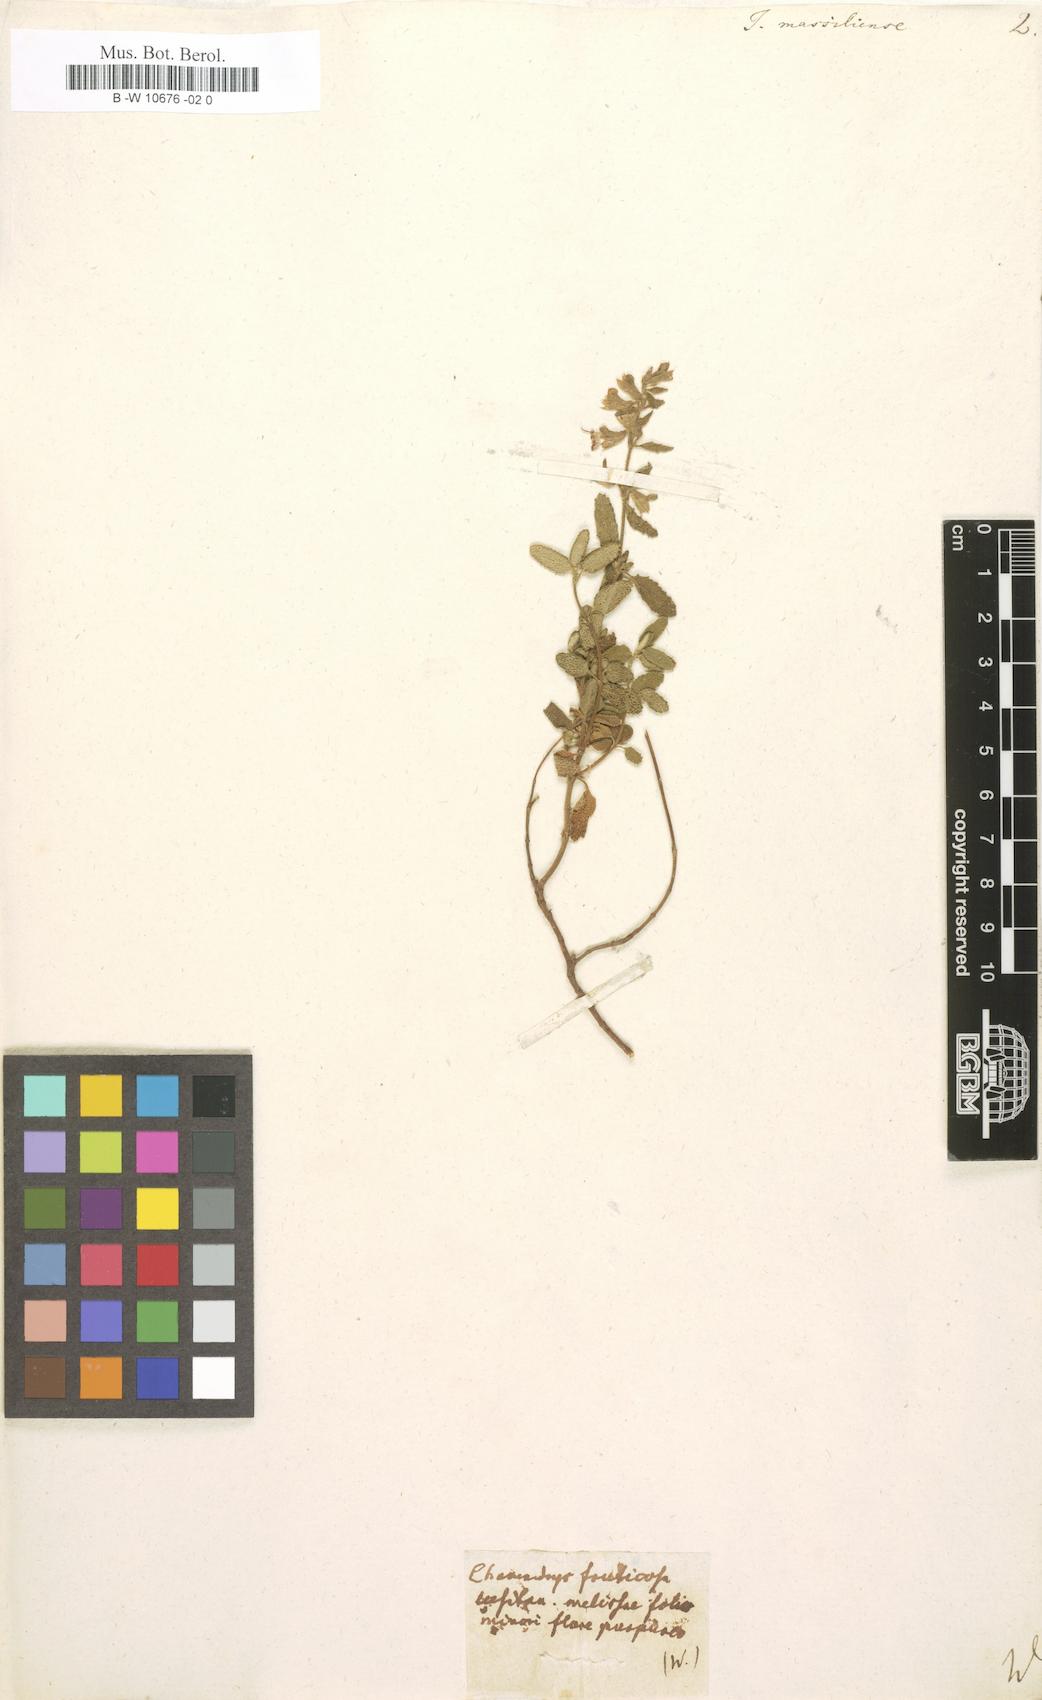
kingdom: Plantae
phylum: Tracheophyta
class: Magnoliopsida
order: Lamiales
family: Lamiaceae
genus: Teucrium
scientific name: Teucrium massiliense
